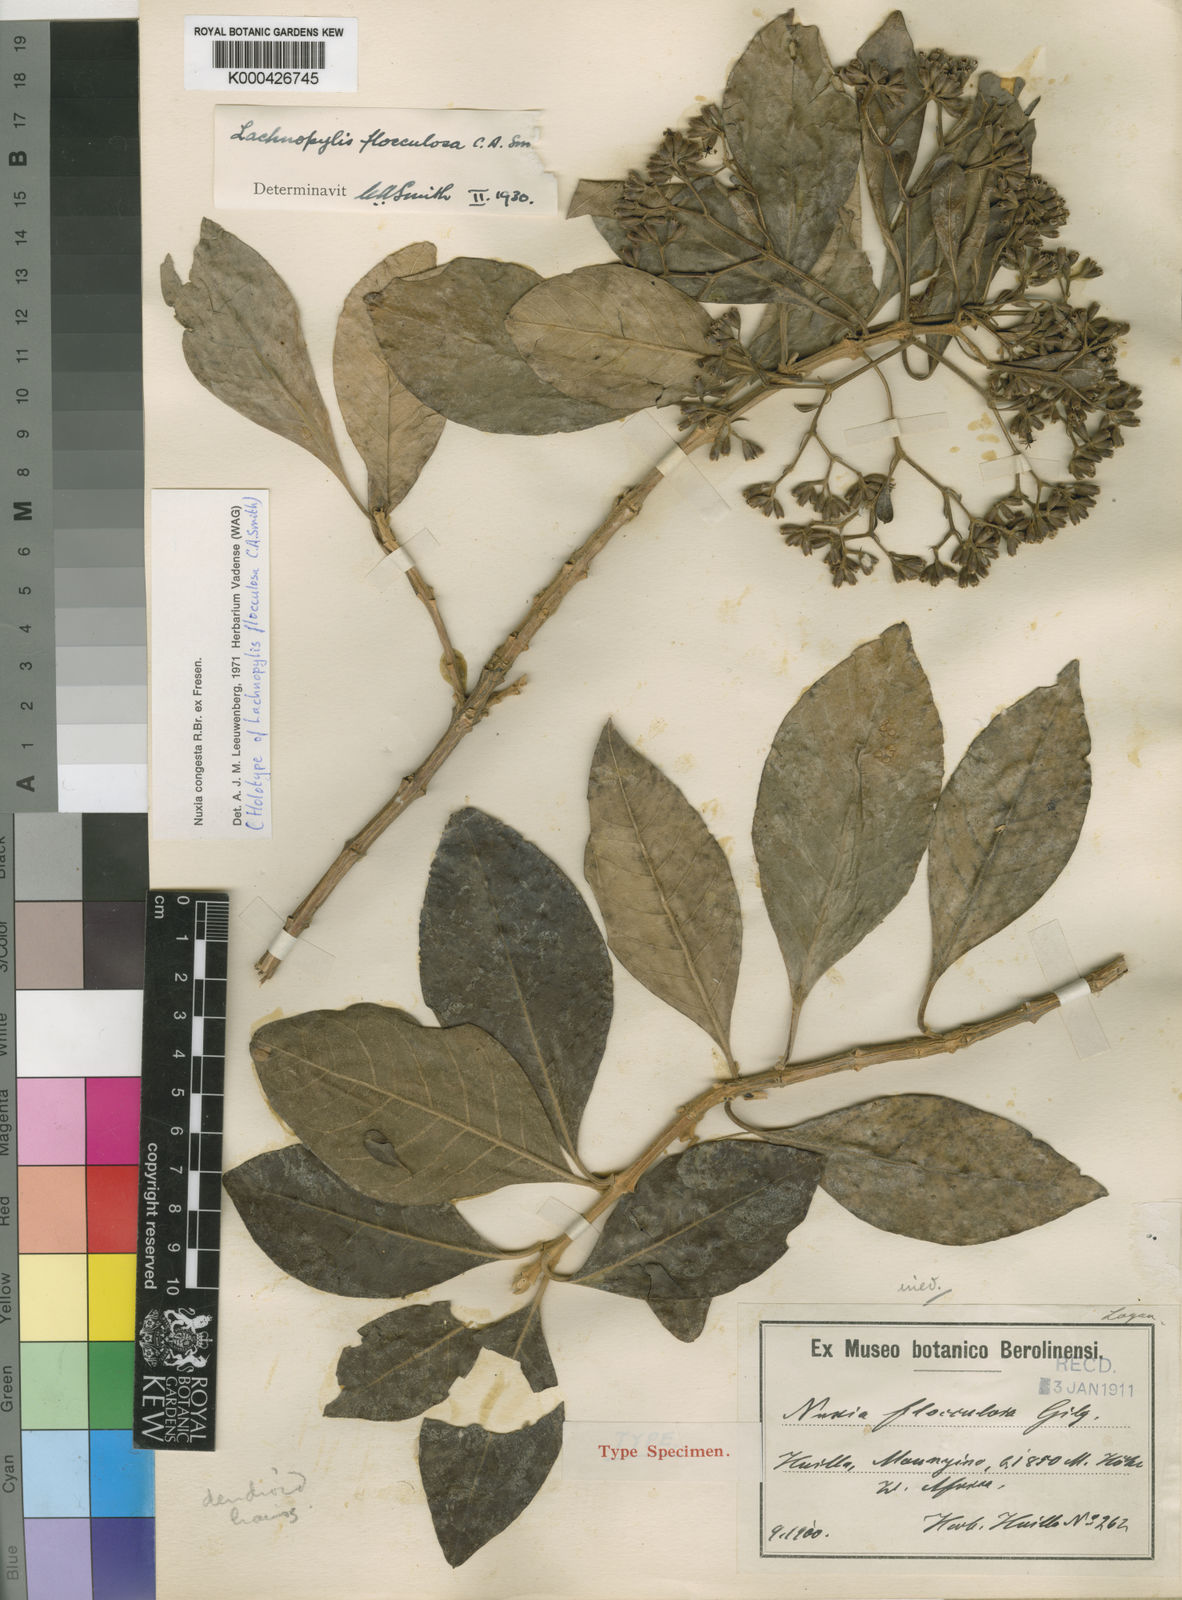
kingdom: Plantae
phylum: Tracheophyta
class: Magnoliopsida
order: Lamiales
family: Stilbaceae
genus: Nuxia
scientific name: Nuxia congesta
